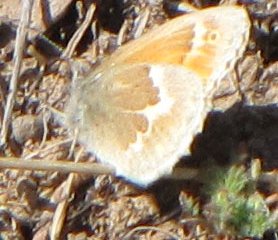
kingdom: Animalia
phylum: Arthropoda
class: Insecta
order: Lepidoptera
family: Nymphalidae
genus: Coenonympha
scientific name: Coenonympha tullia
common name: Large Heath
